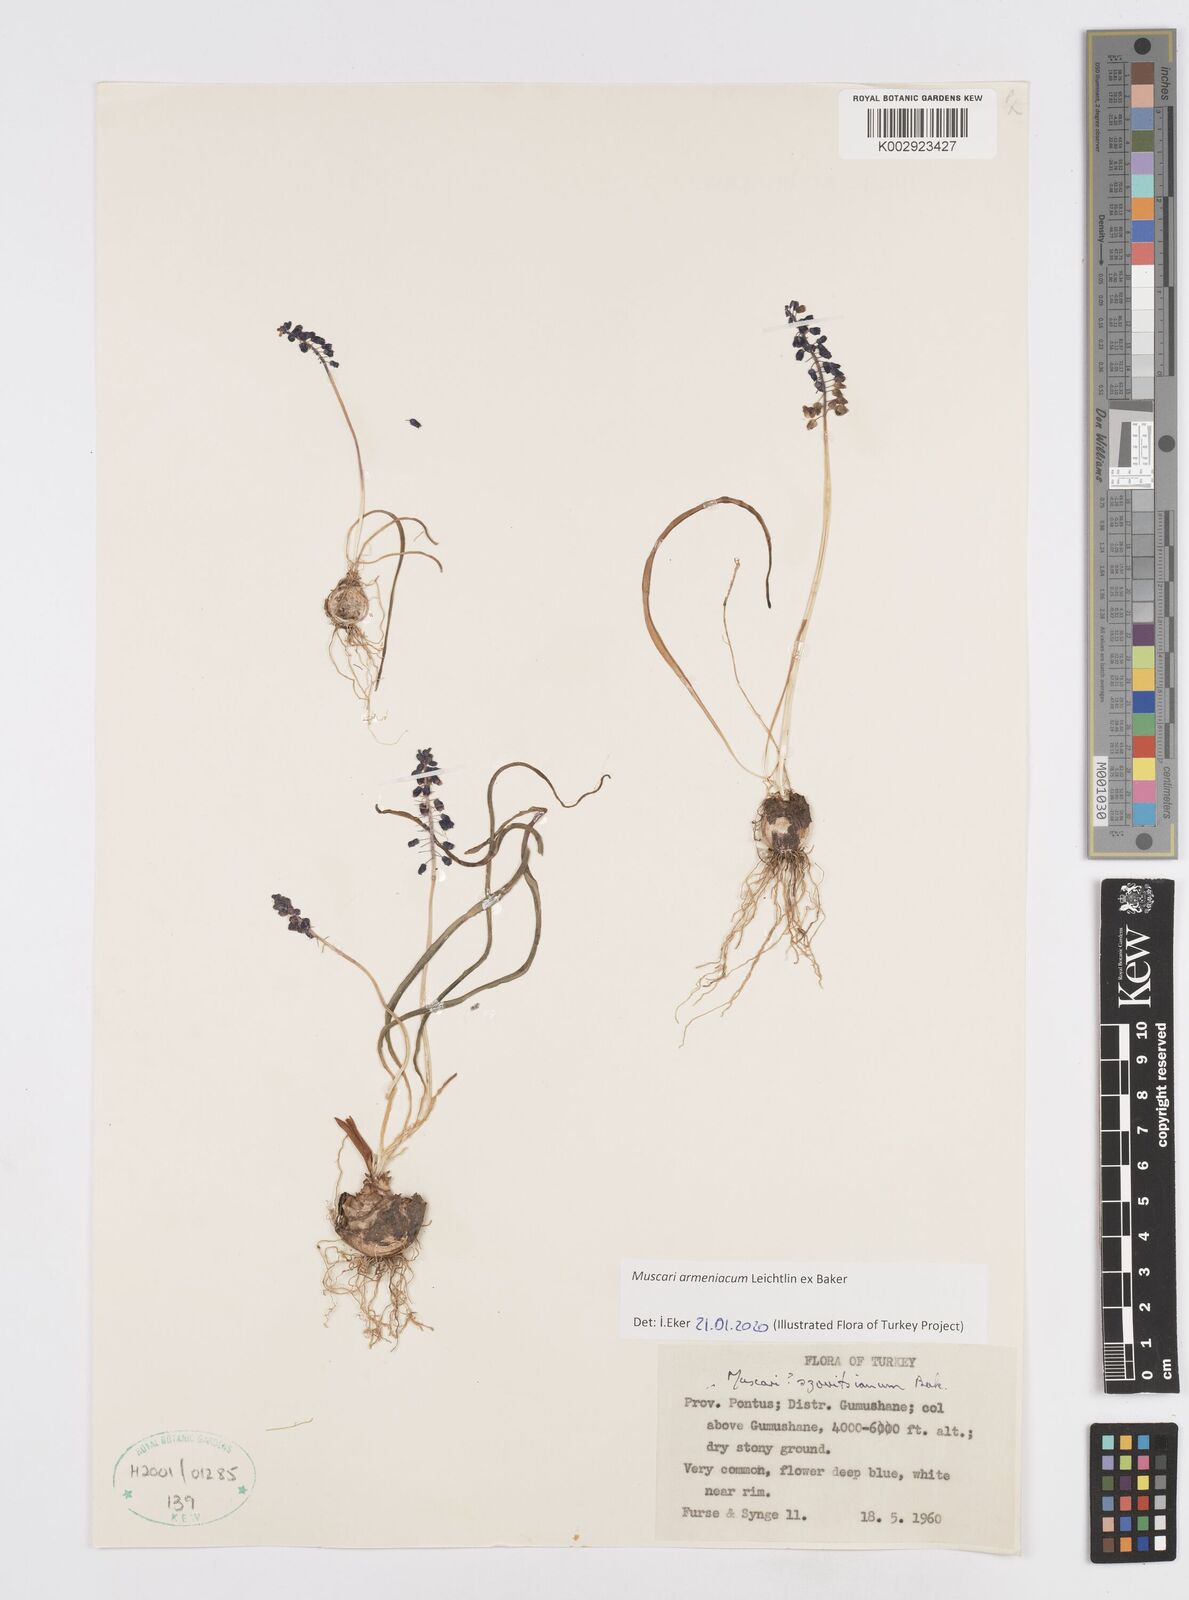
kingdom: Plantae
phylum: Tracheophyta
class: Liliopsida
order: Asparagales
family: Asparagaceae
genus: Muscari
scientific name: Muscari neglectum
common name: Grape-hyacinth
